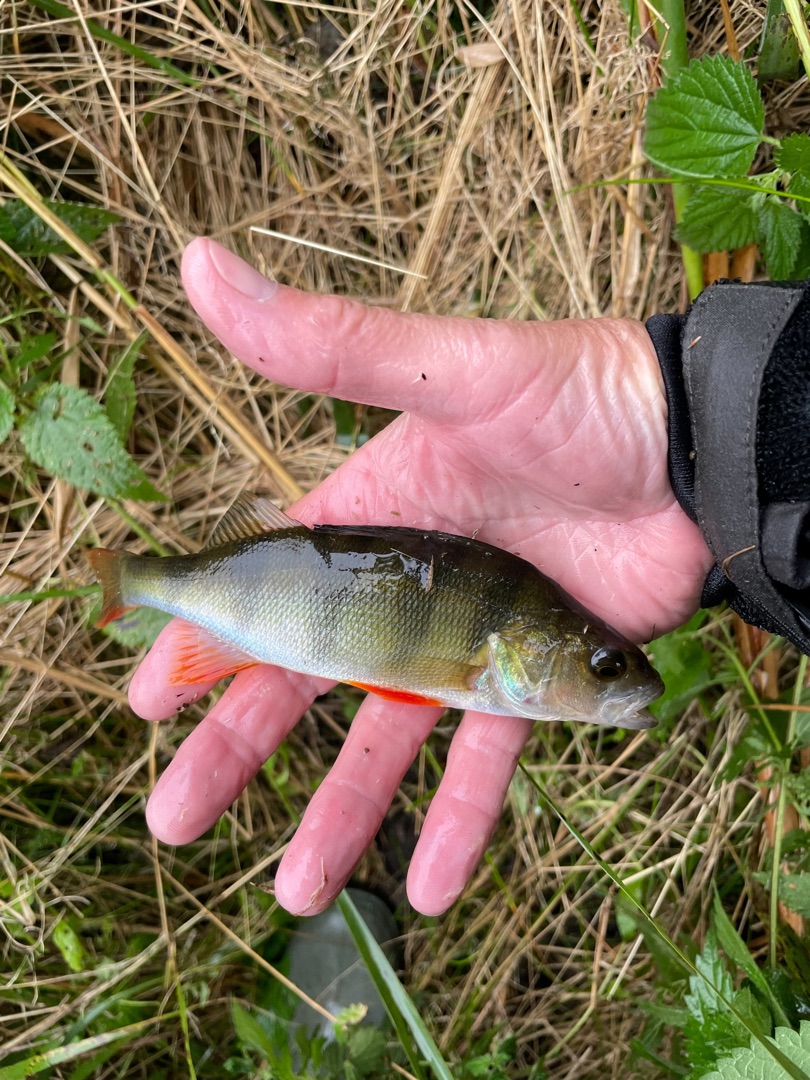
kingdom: Animalia
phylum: Chordata
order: Perciformes
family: Percidae
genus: Perca
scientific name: Perca fluviatilis
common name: Aborre
